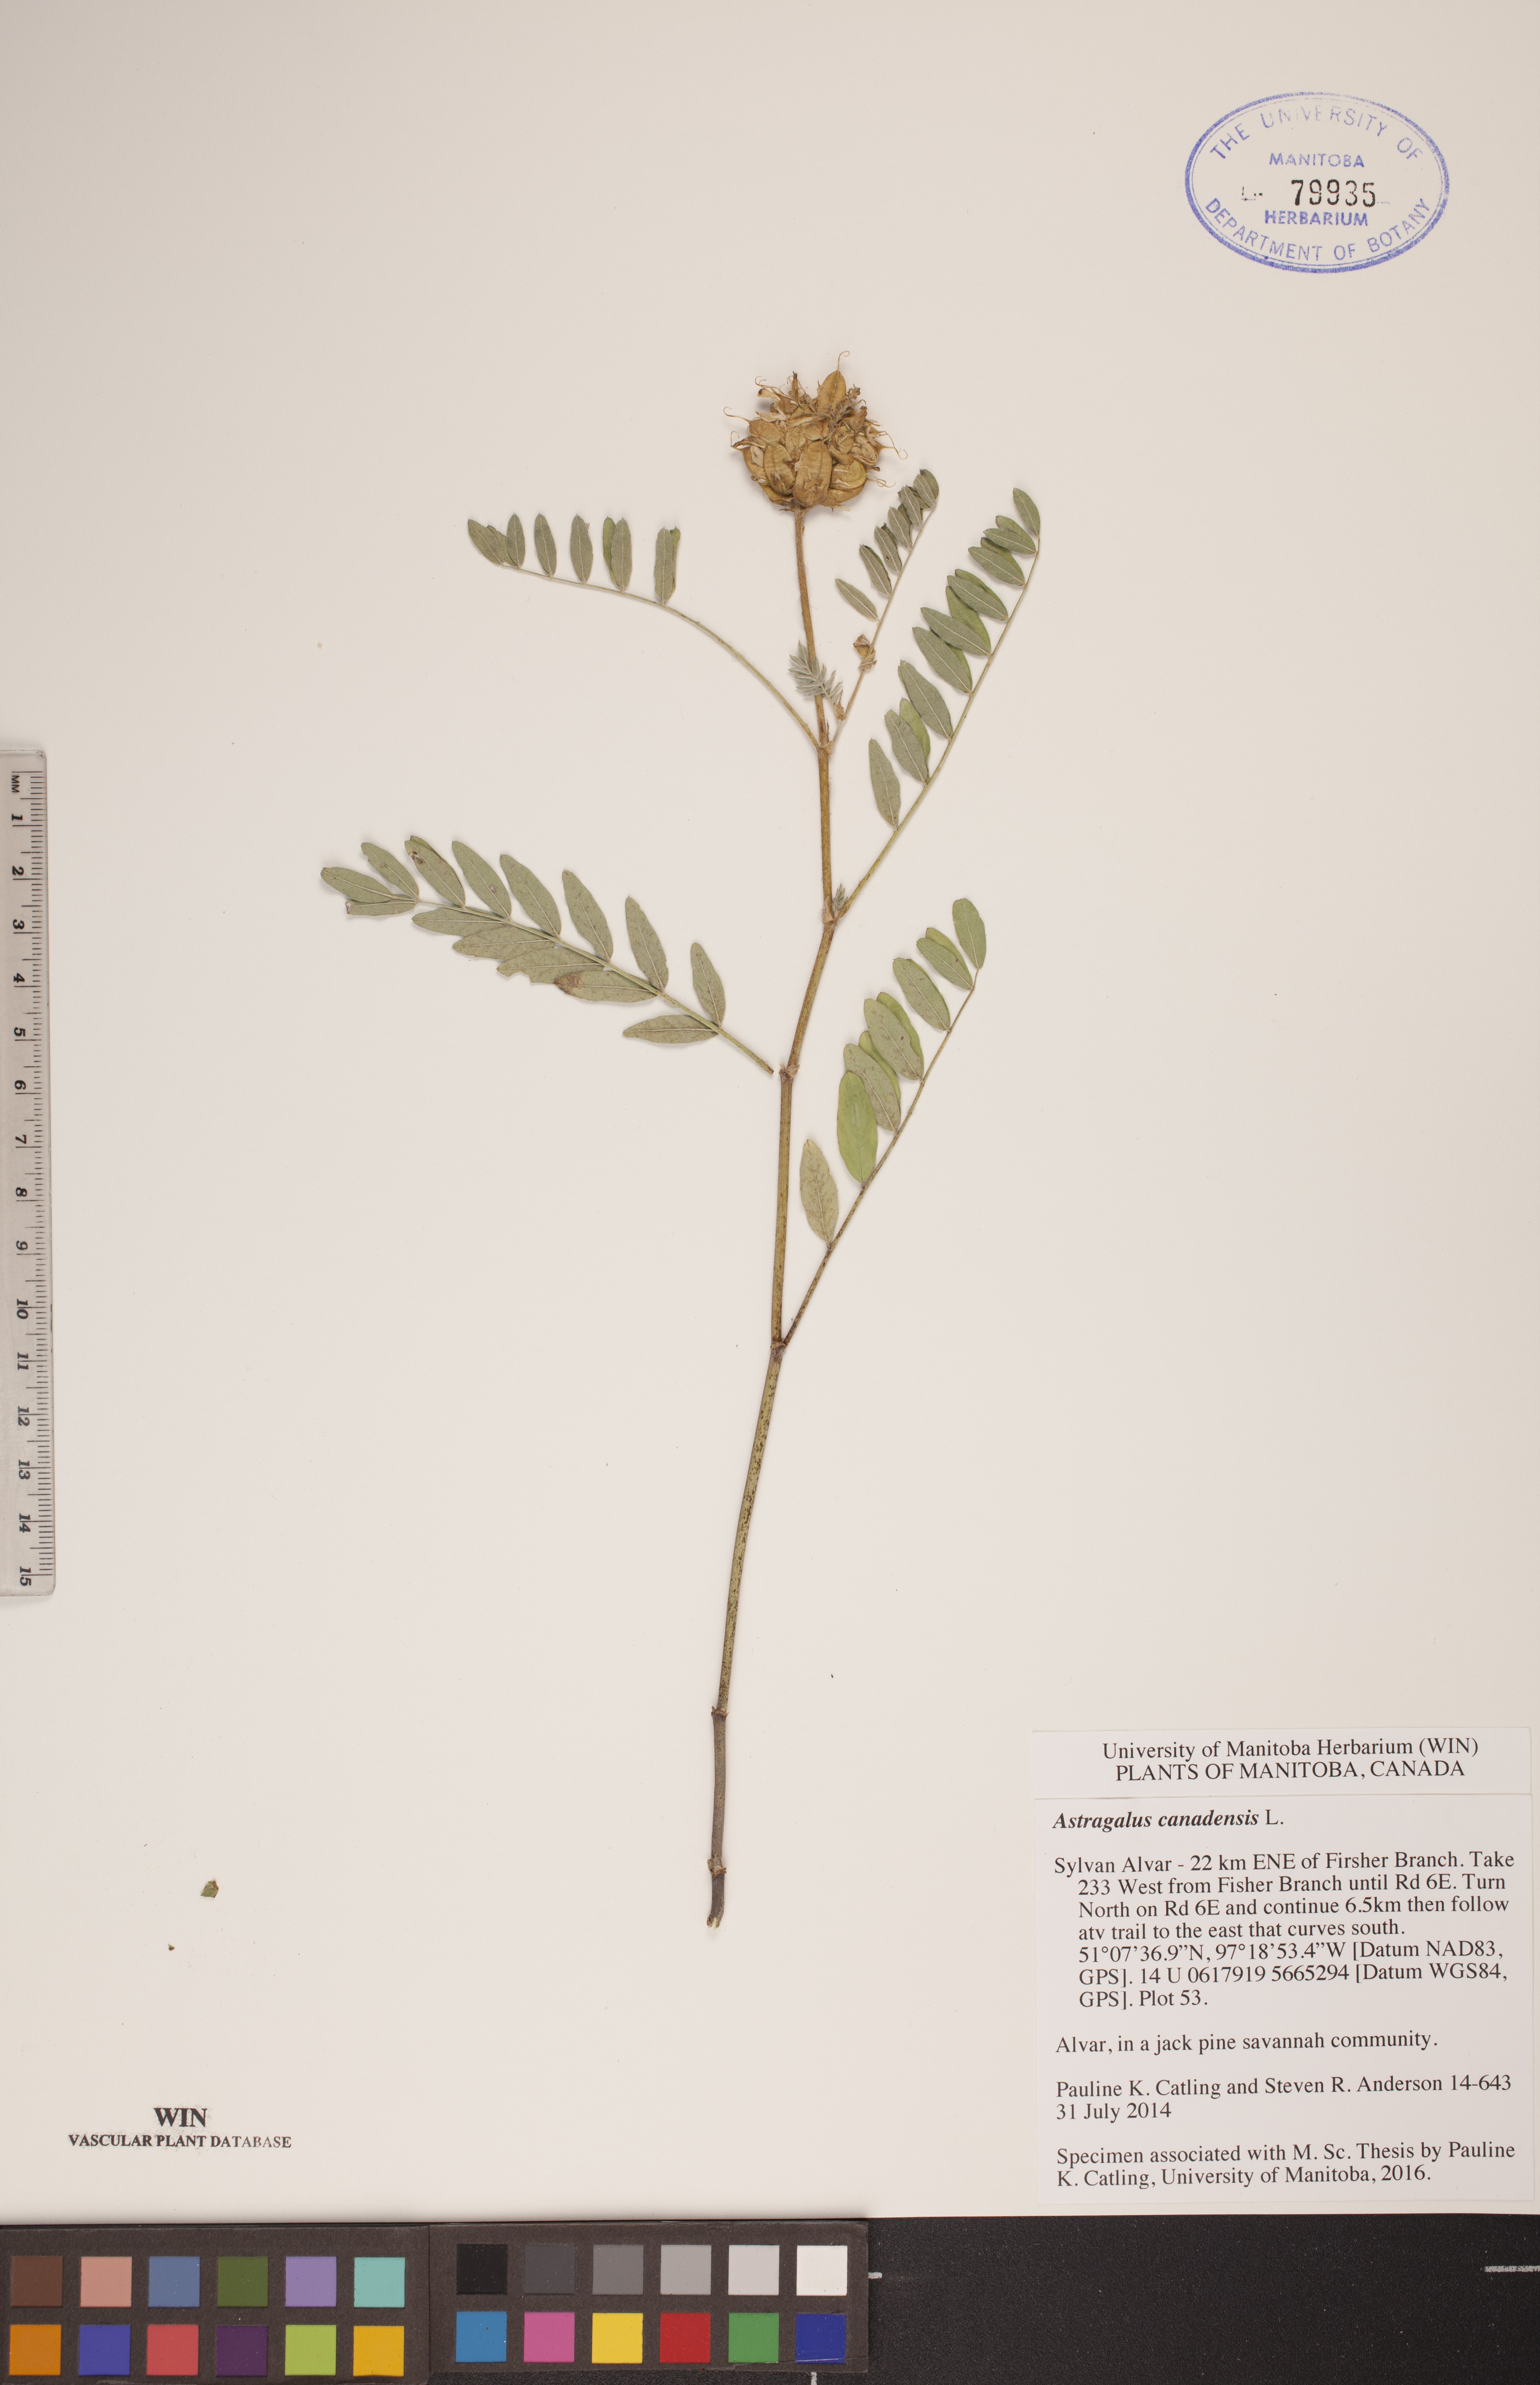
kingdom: Plantae
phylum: Tracheophyta
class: Magnoliopsida
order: Fabales
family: Fabaceae
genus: Astragalus
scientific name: Astragalus canadensis
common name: Canada milk-vetch
